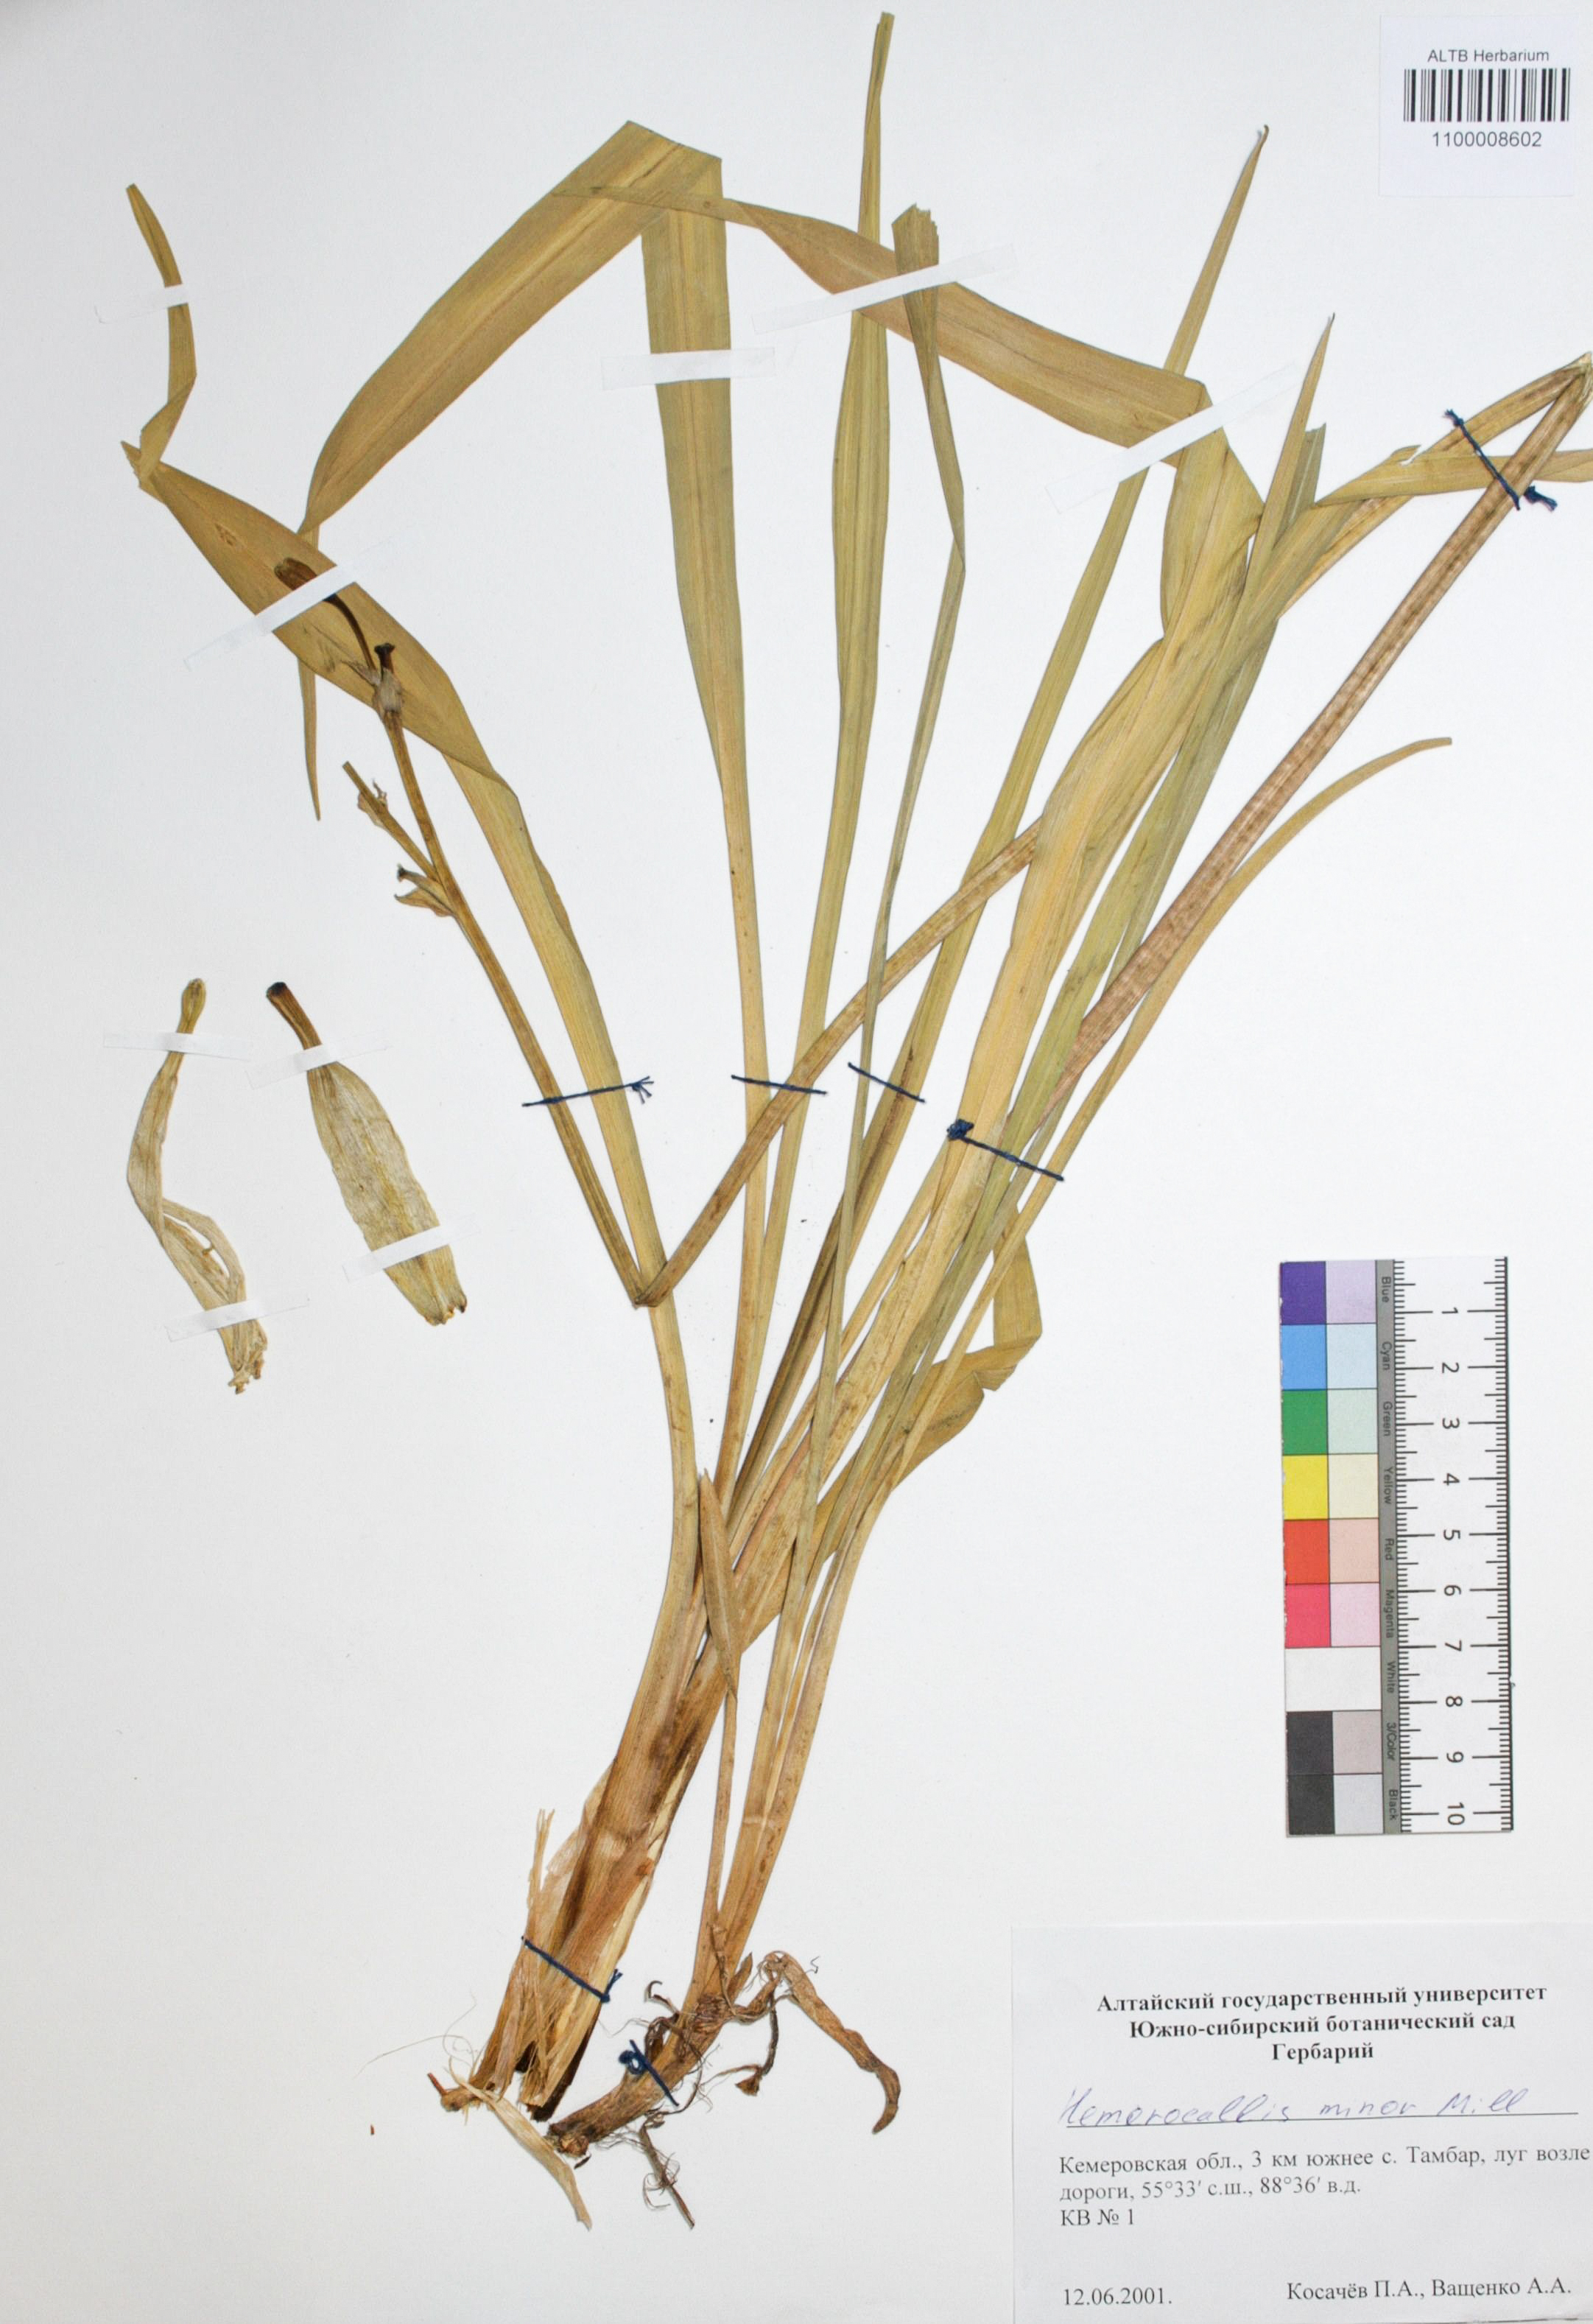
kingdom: Plantae
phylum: Tracheophyta
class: Liliopsida
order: Asparagales
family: Asphodelaceae
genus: Hemerocallis
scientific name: Hemerocallis minor
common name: Small daylily
